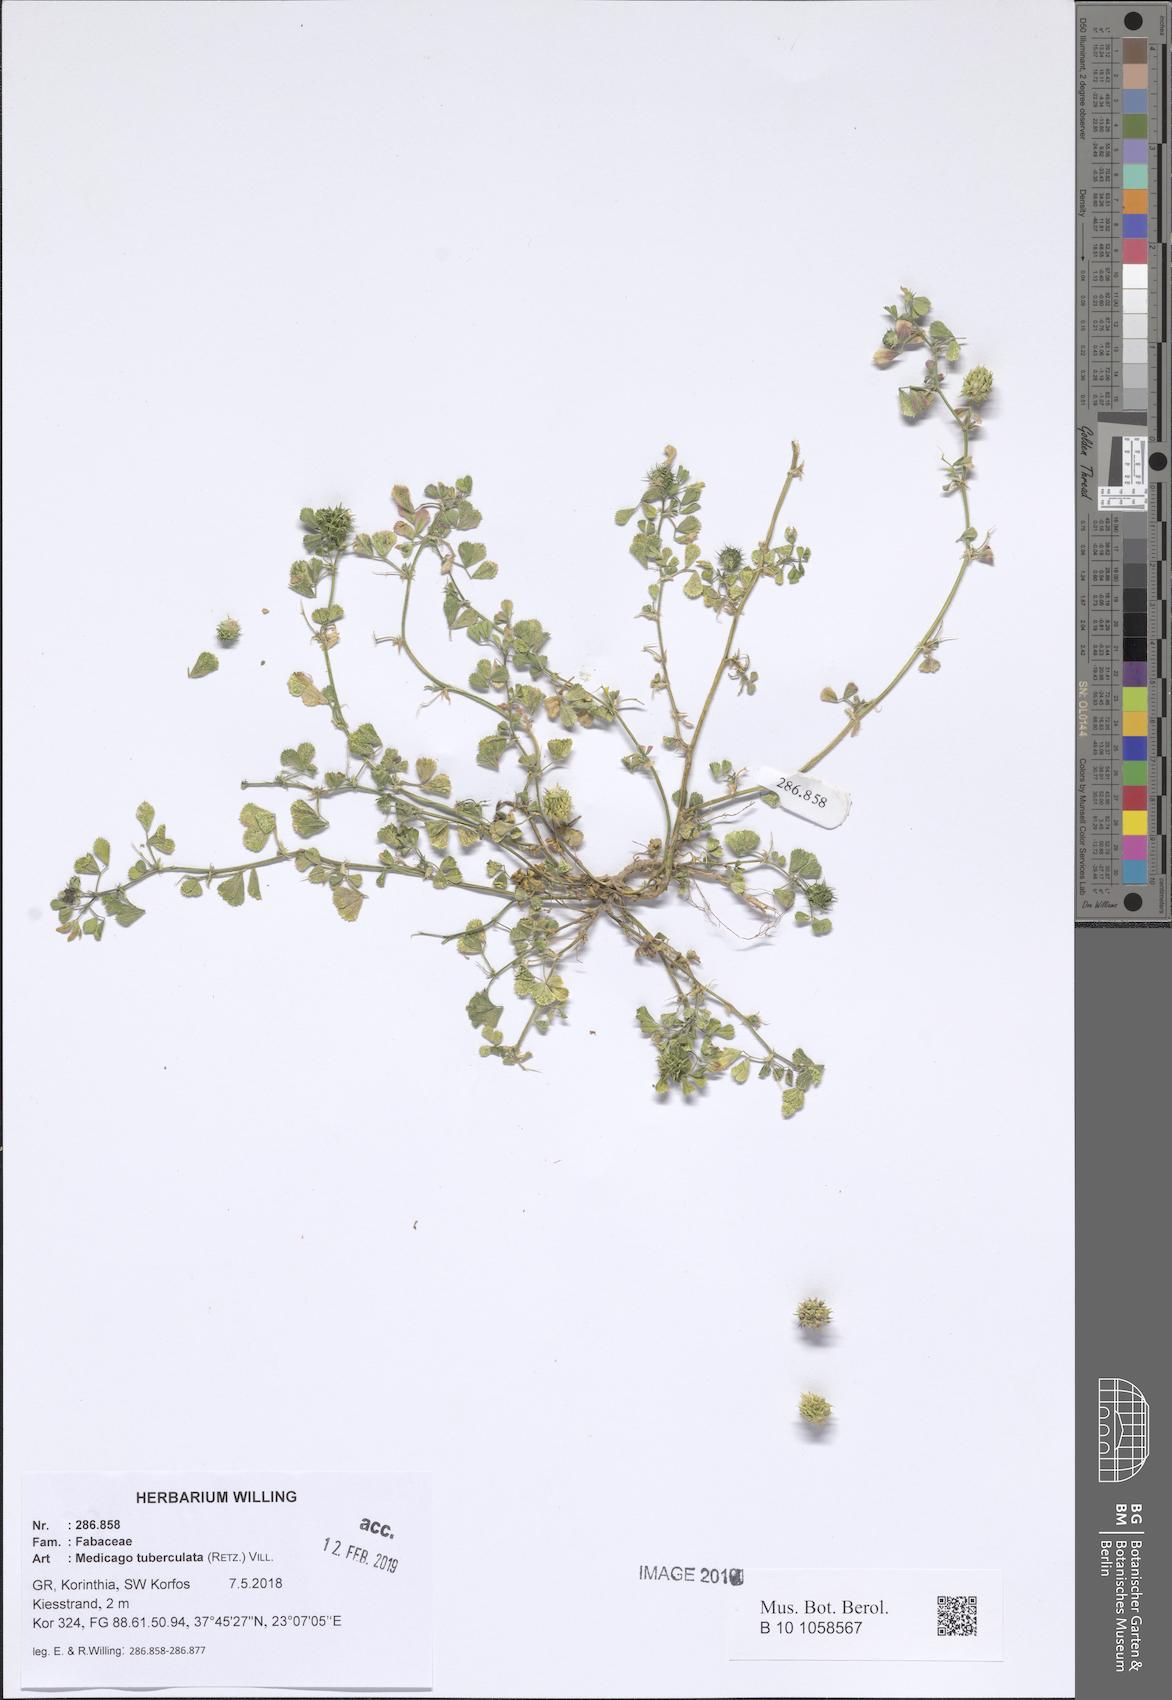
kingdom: Plantae
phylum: Tracheophyta
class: Magnoliopsida
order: Fabales
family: Fabaceae
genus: Medicago
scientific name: Medicago turbinata
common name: Southern medick
